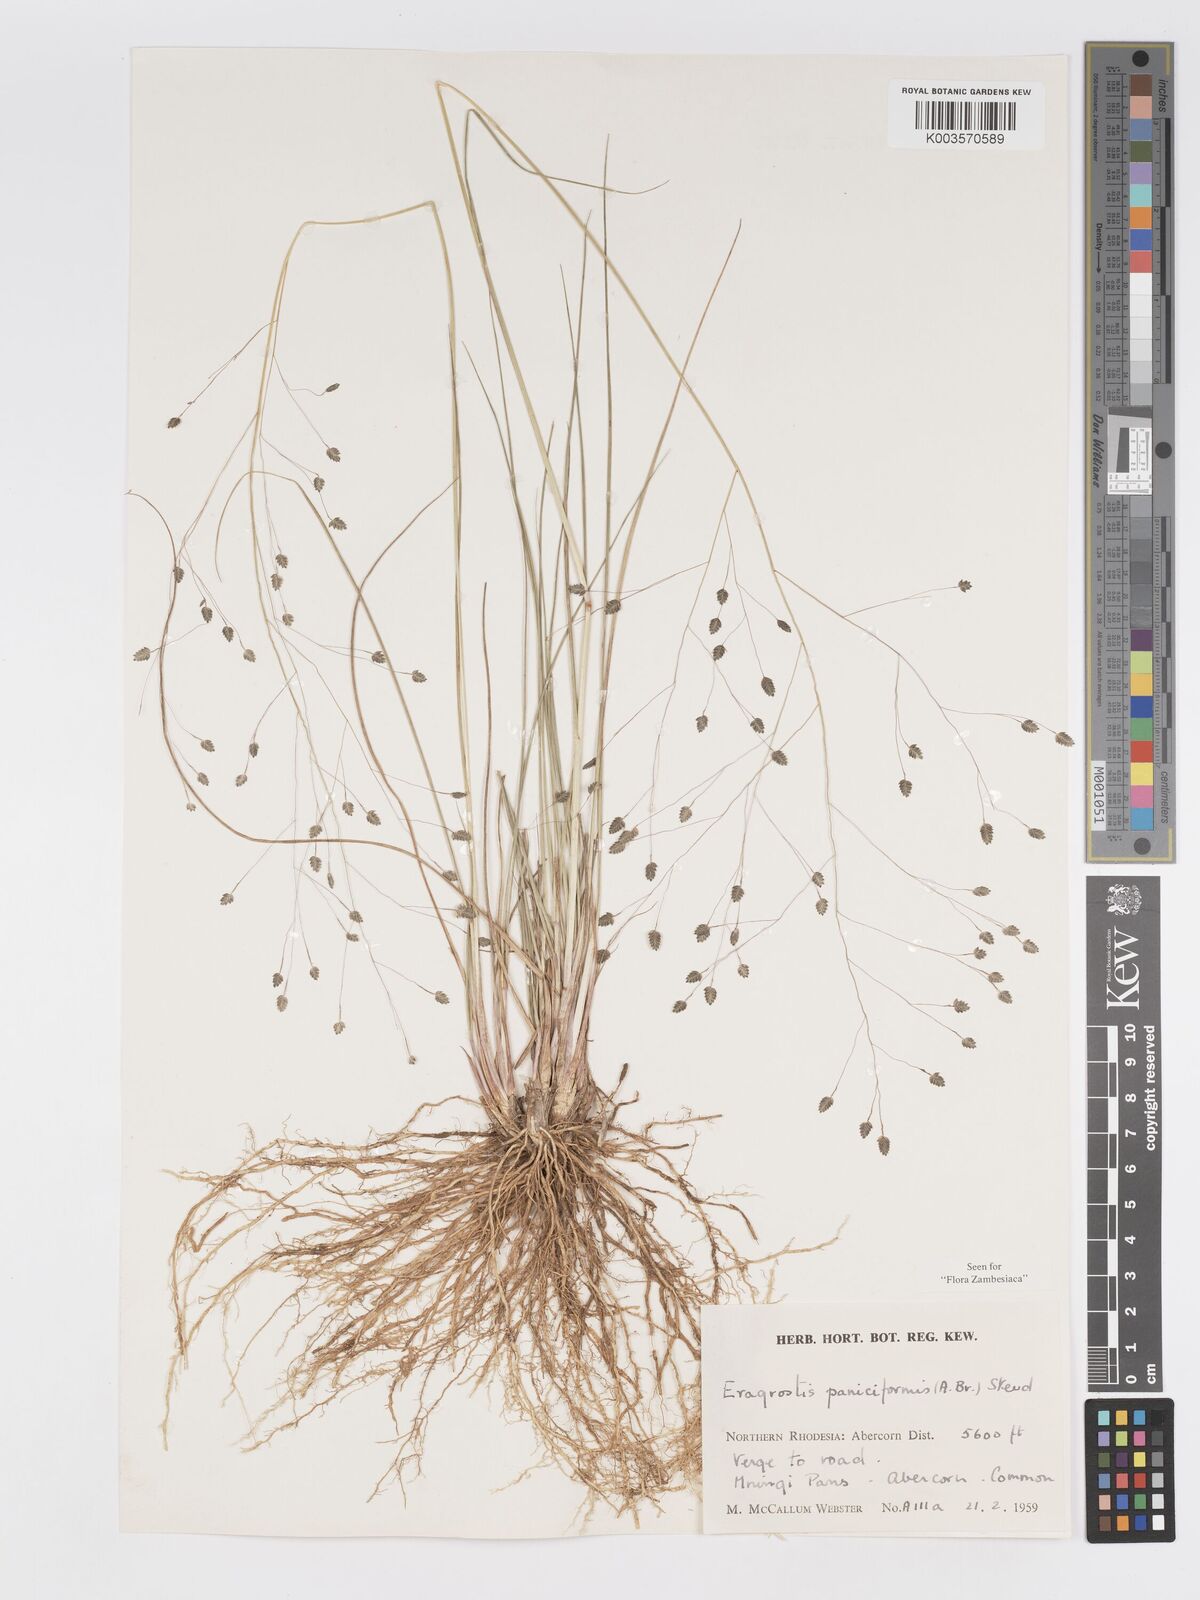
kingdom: Plantae
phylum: Tracheophyta
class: Liliopsida
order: Poales
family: Poaceae
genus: Eragrostis
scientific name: Eragrostis paniciformis
